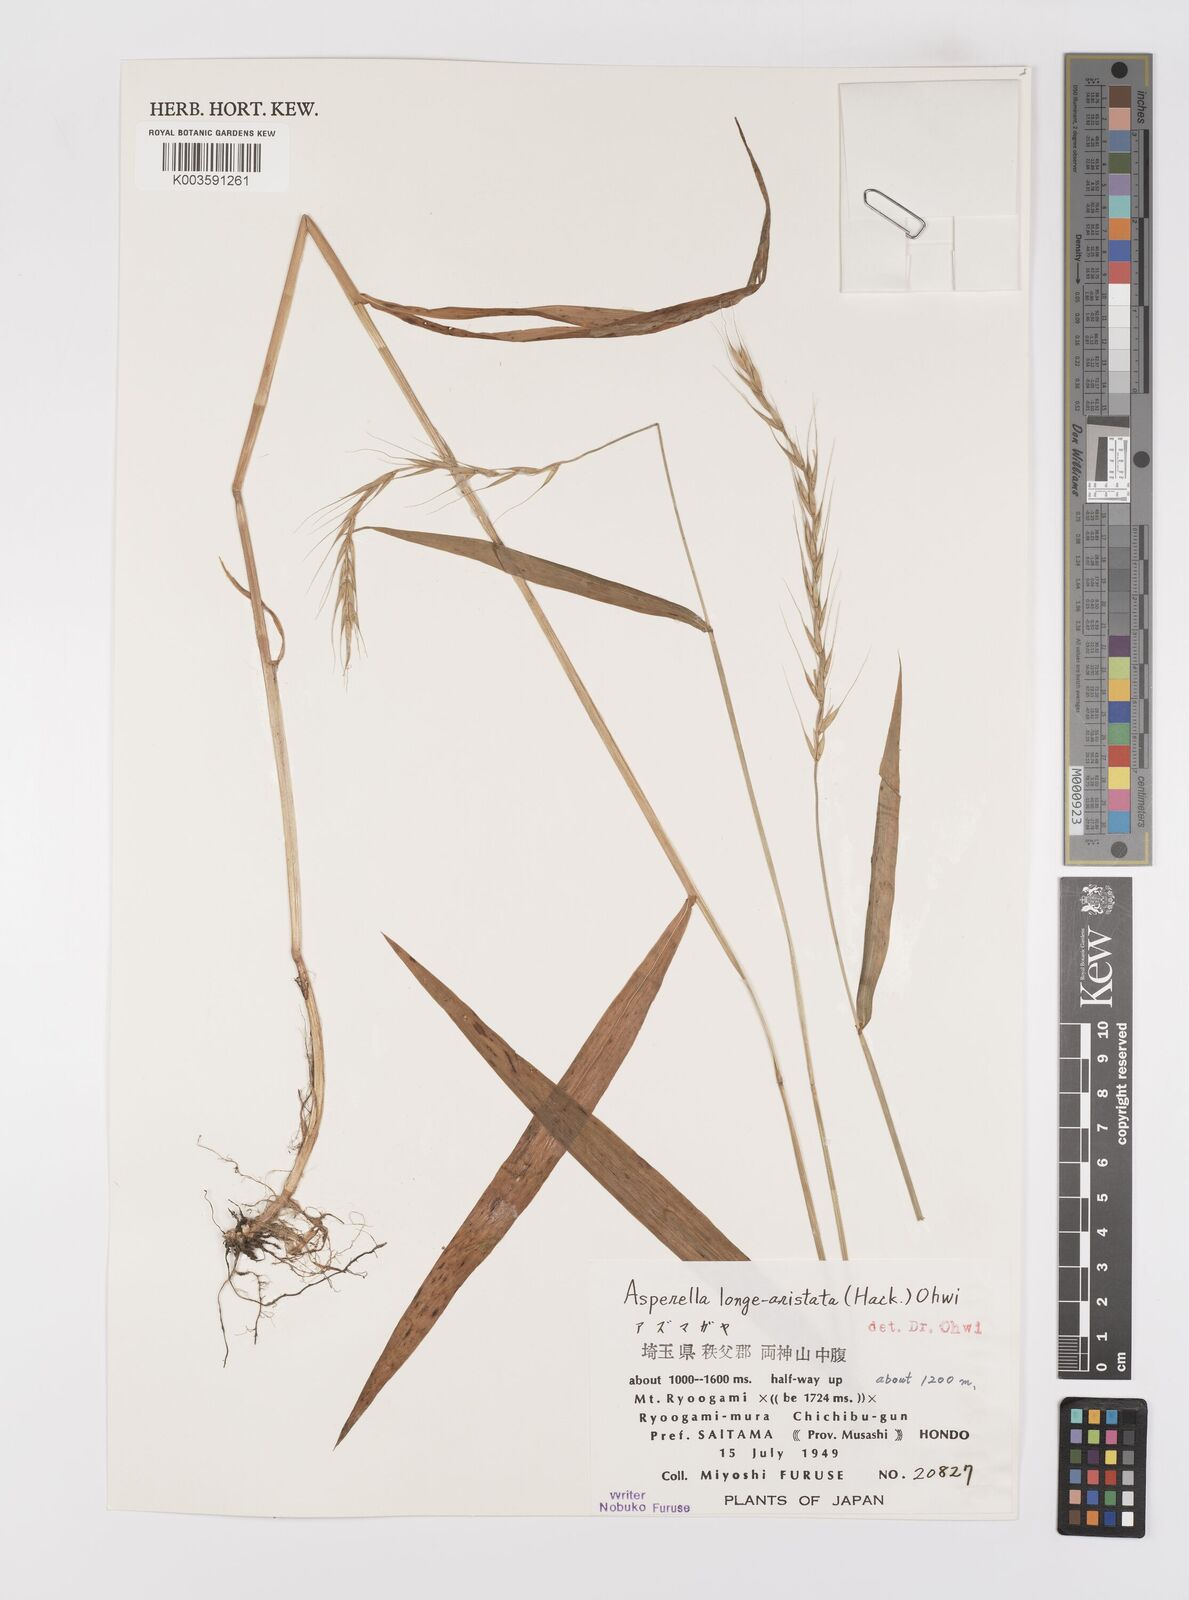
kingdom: Plantae
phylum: Tracheophyta
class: Liliopsida
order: Poales
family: Poaceae
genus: Leymus
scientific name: Leymus duthiei
